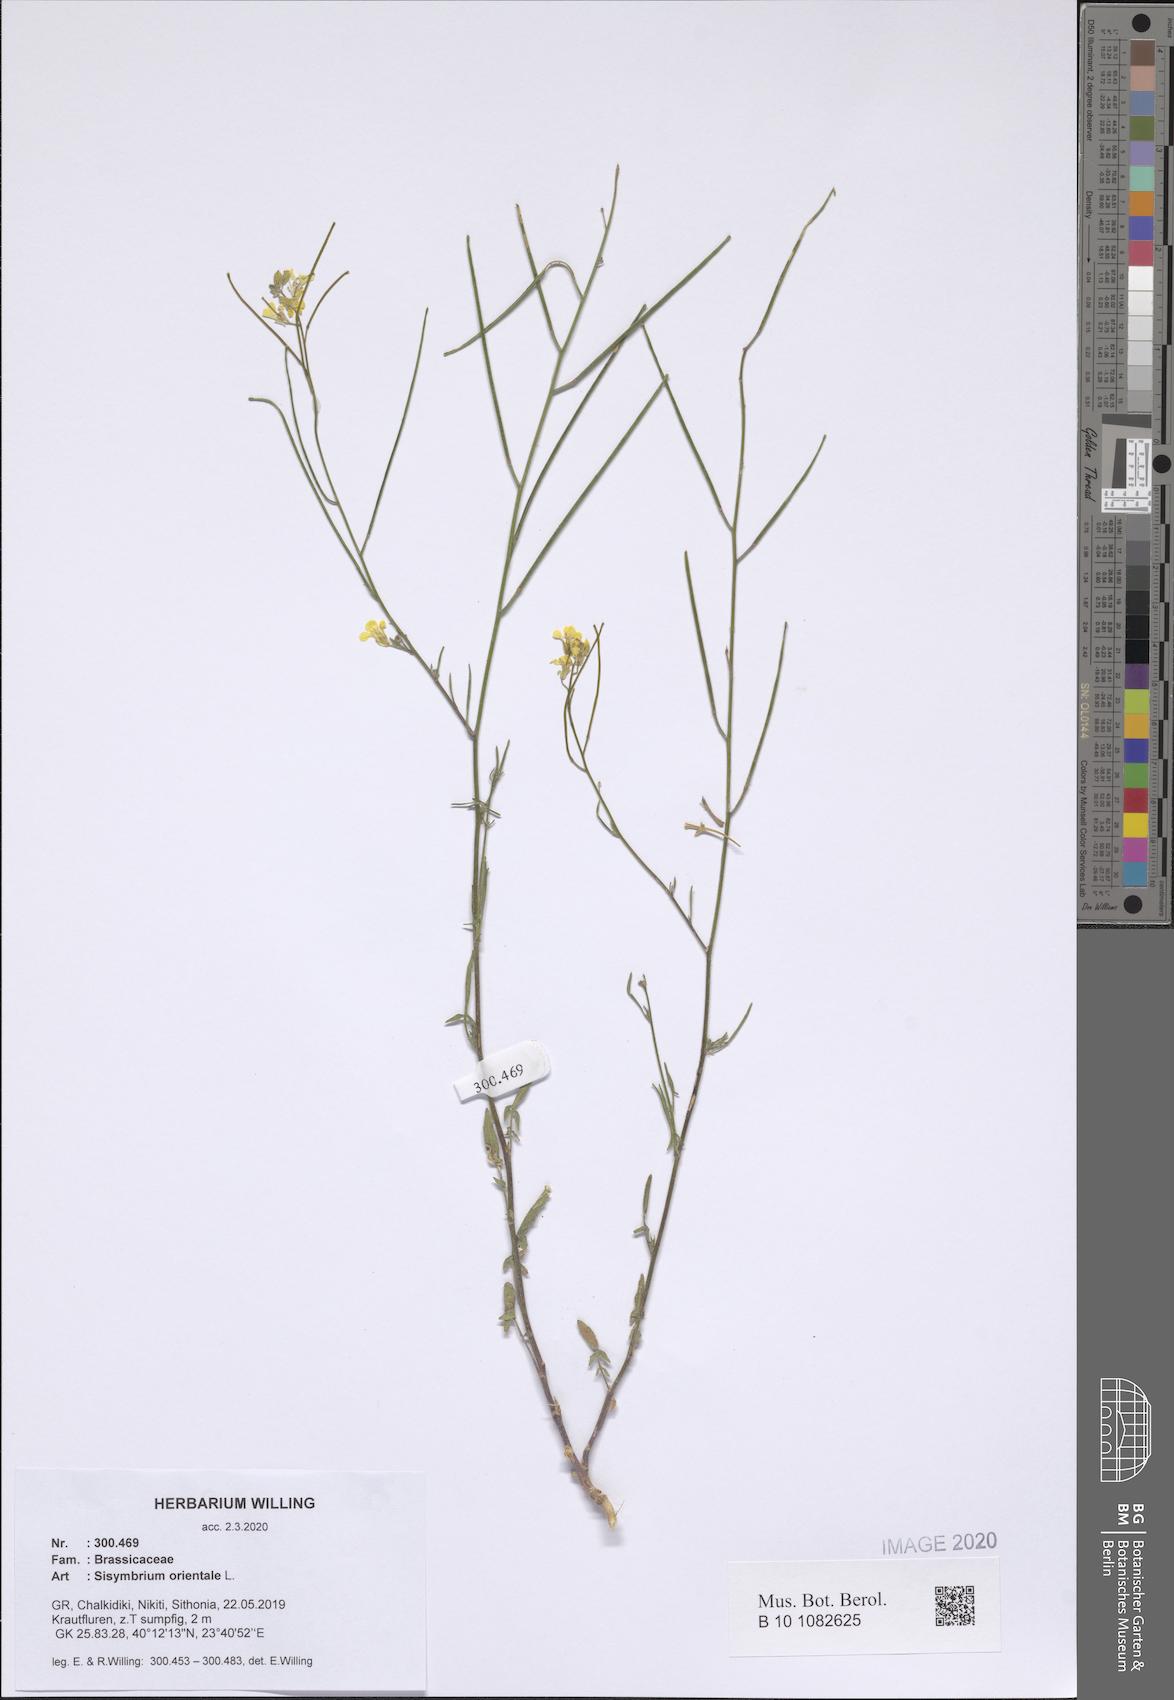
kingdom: Plantae
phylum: Tracheophyta
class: Magnoliopsida
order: Brassicales
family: Brassicaceae
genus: Sisymbrium
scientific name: Sisymbrium orientale
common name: Eastern rocket
